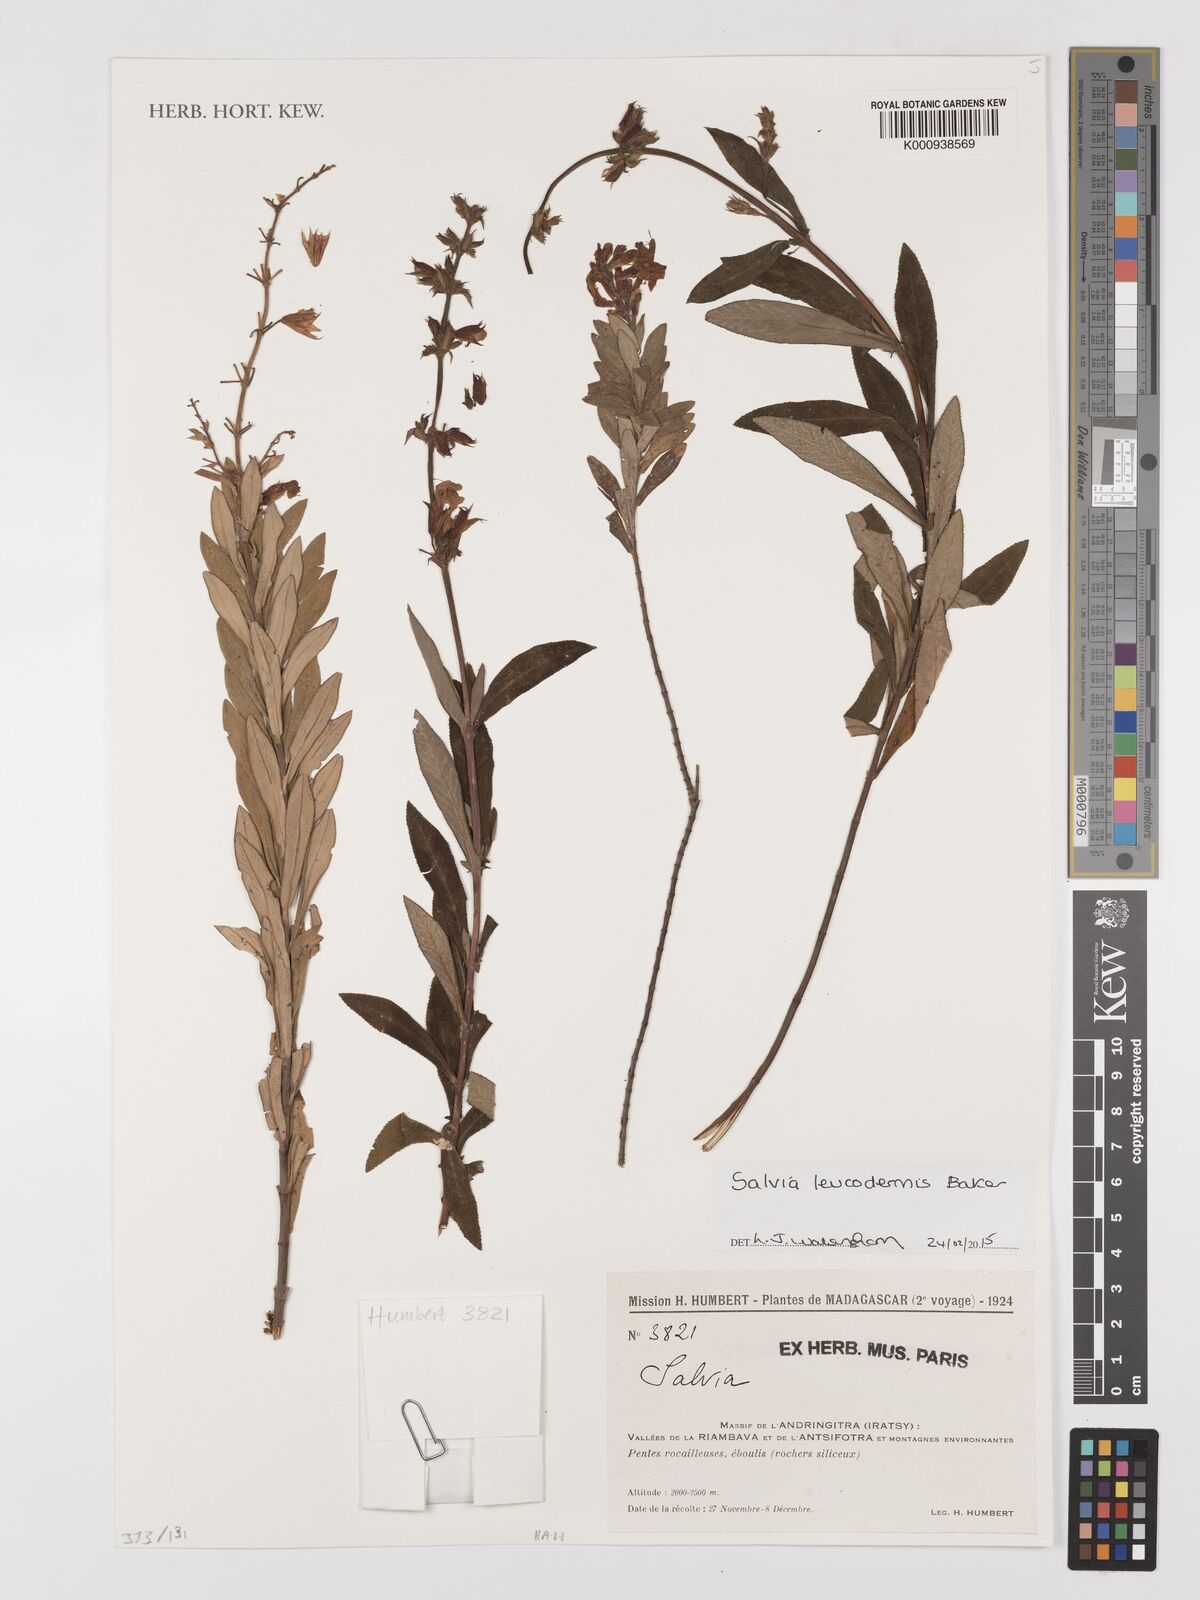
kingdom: Plantae
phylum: Tracheophyta
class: Magnoliopsida
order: Lamiales
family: Lamiaceae
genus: Salvia
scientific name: Salvia leucodermis
